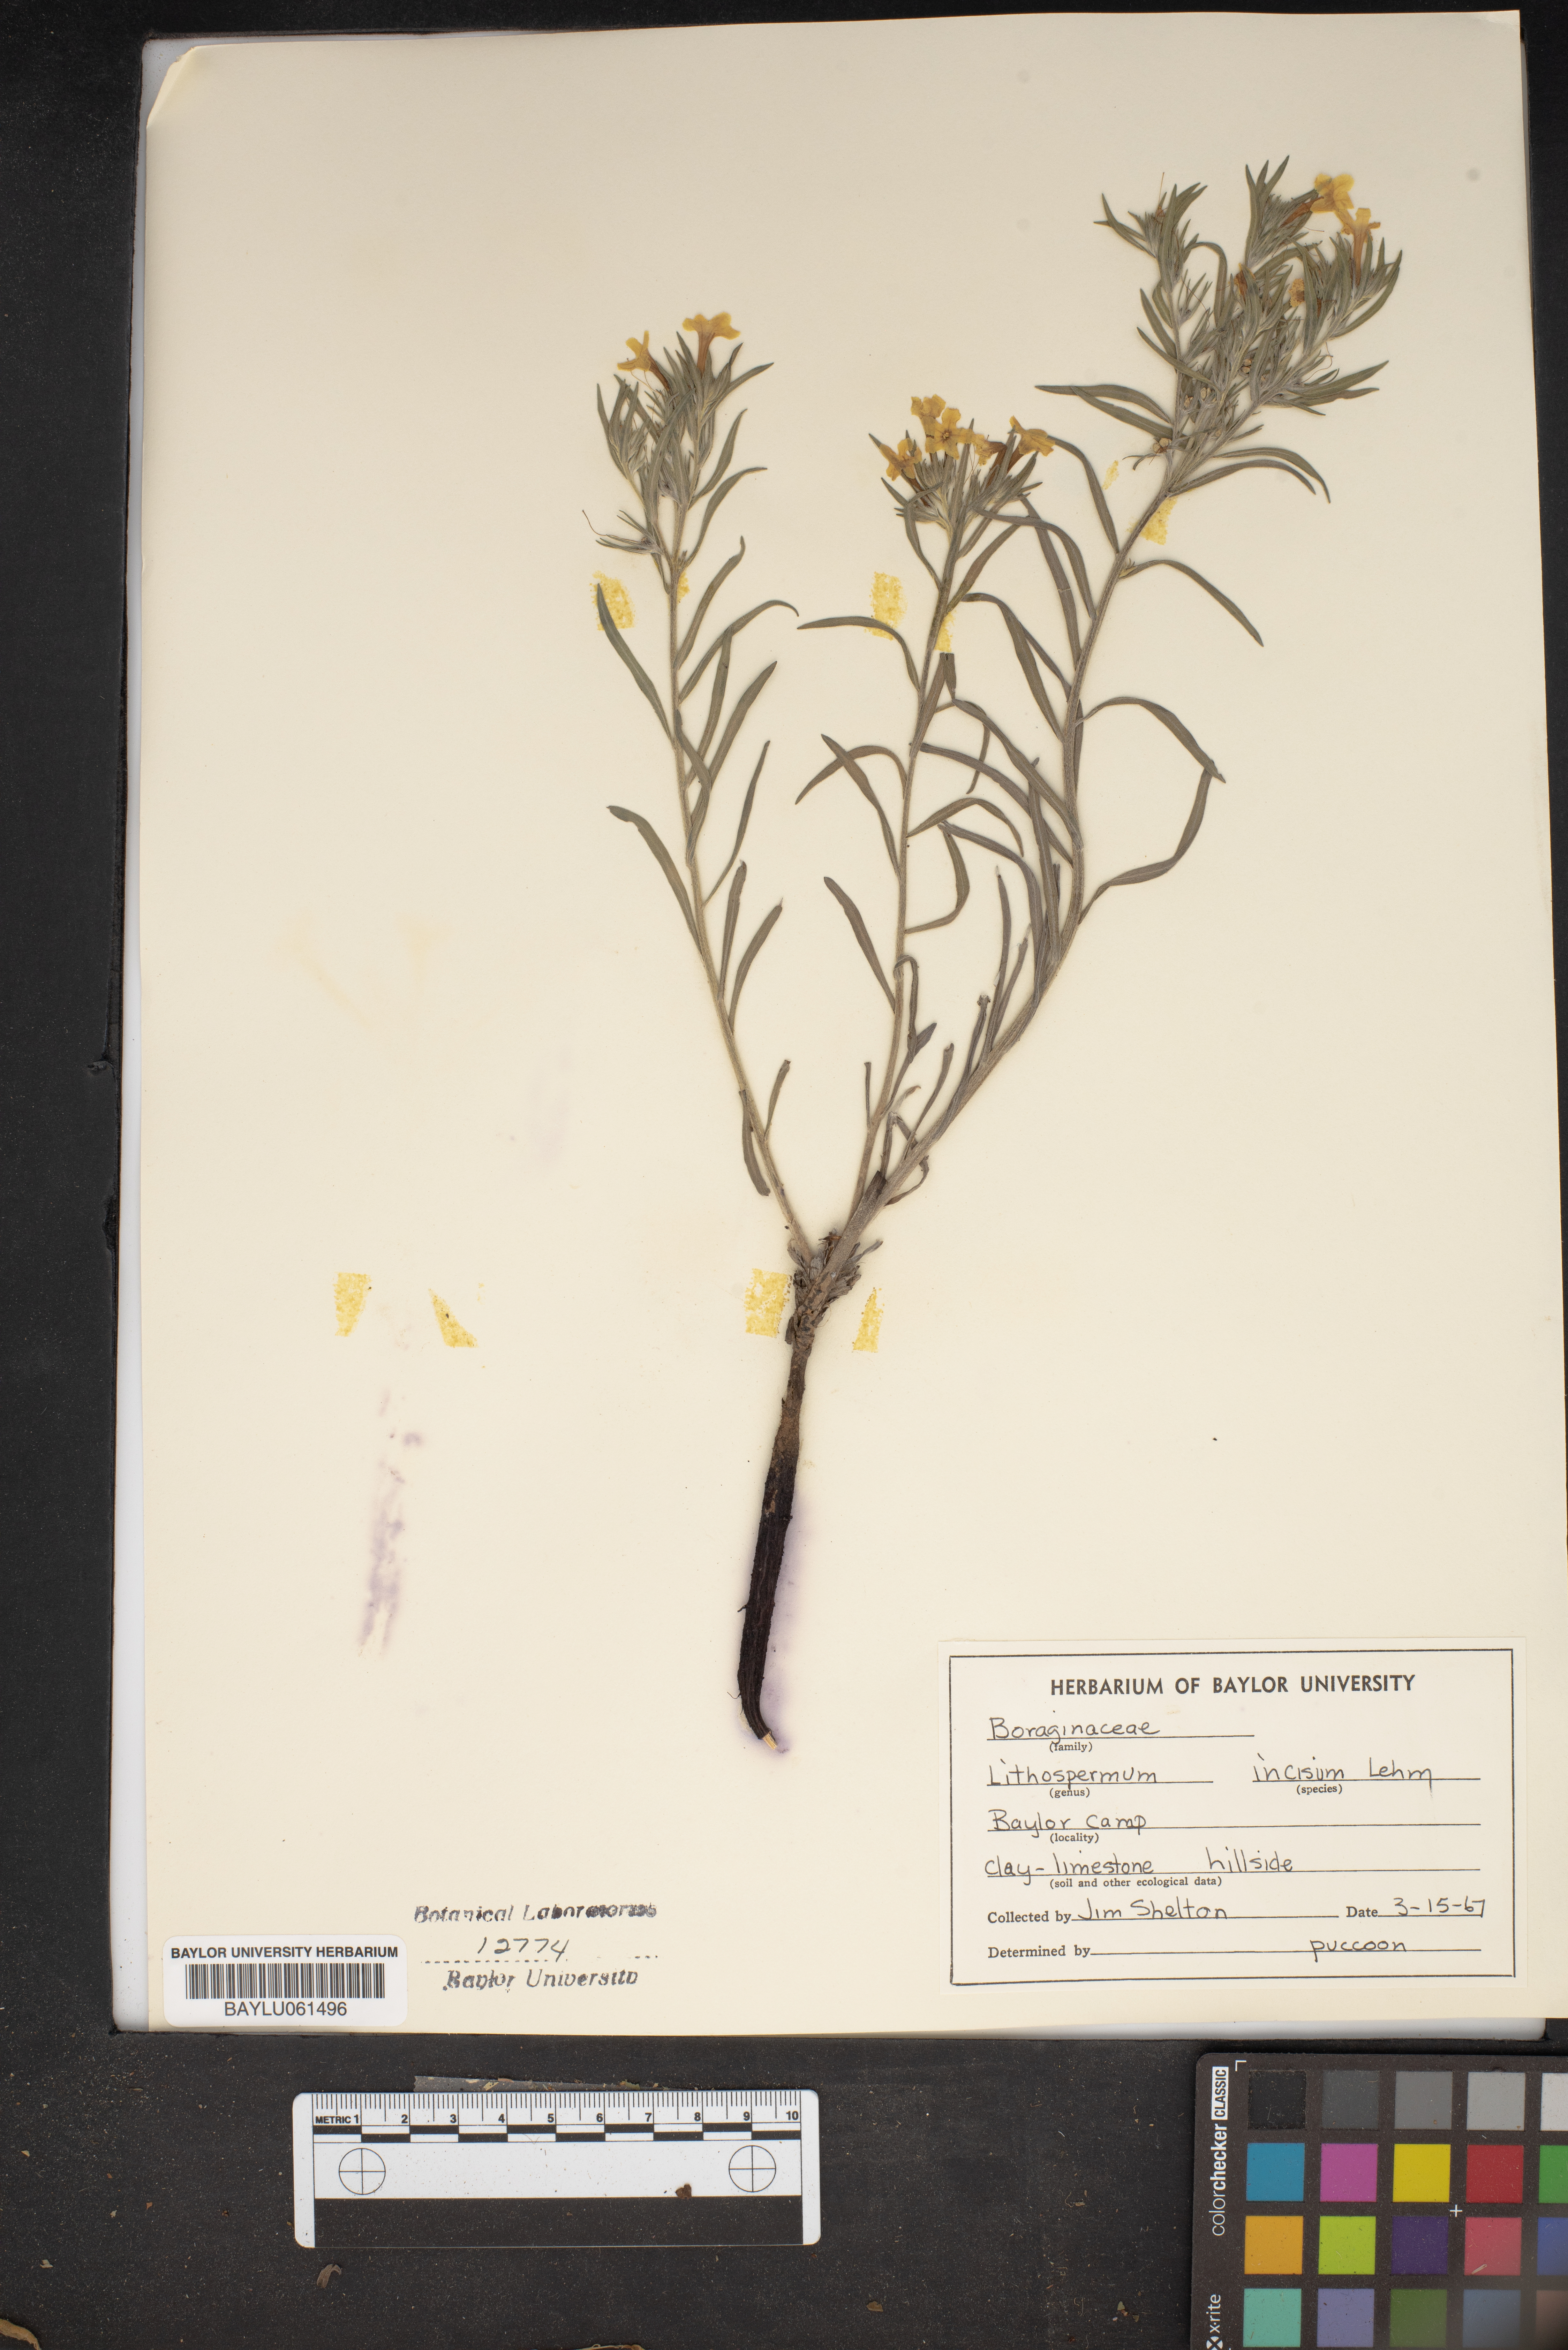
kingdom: Plantae
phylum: Tracheophyta
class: Magnoliopsida
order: Boraginales
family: Boraginaceae
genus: Lithospermum
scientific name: Lithospermum incisum
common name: Fringed gromwell
